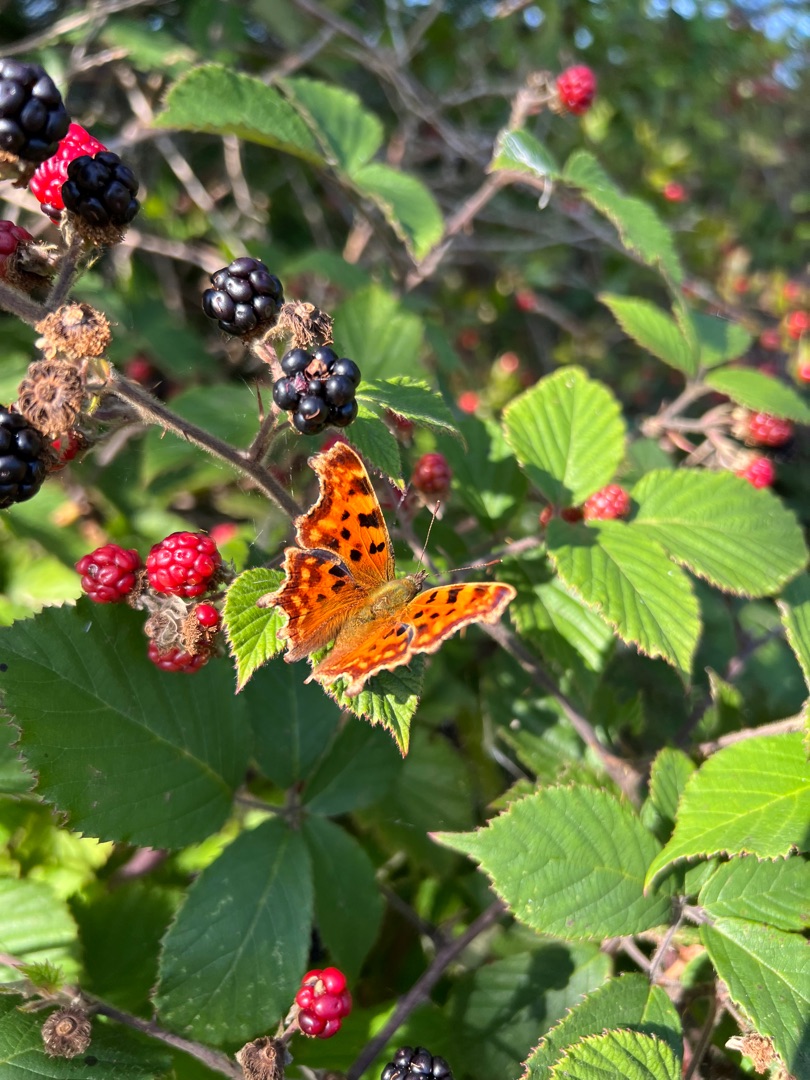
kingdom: Animalia
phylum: Arthropoda
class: Insecta
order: Lepidoptera
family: Nymphalidae
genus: Polygonia
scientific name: Polygonia c-album
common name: Det hvide C
